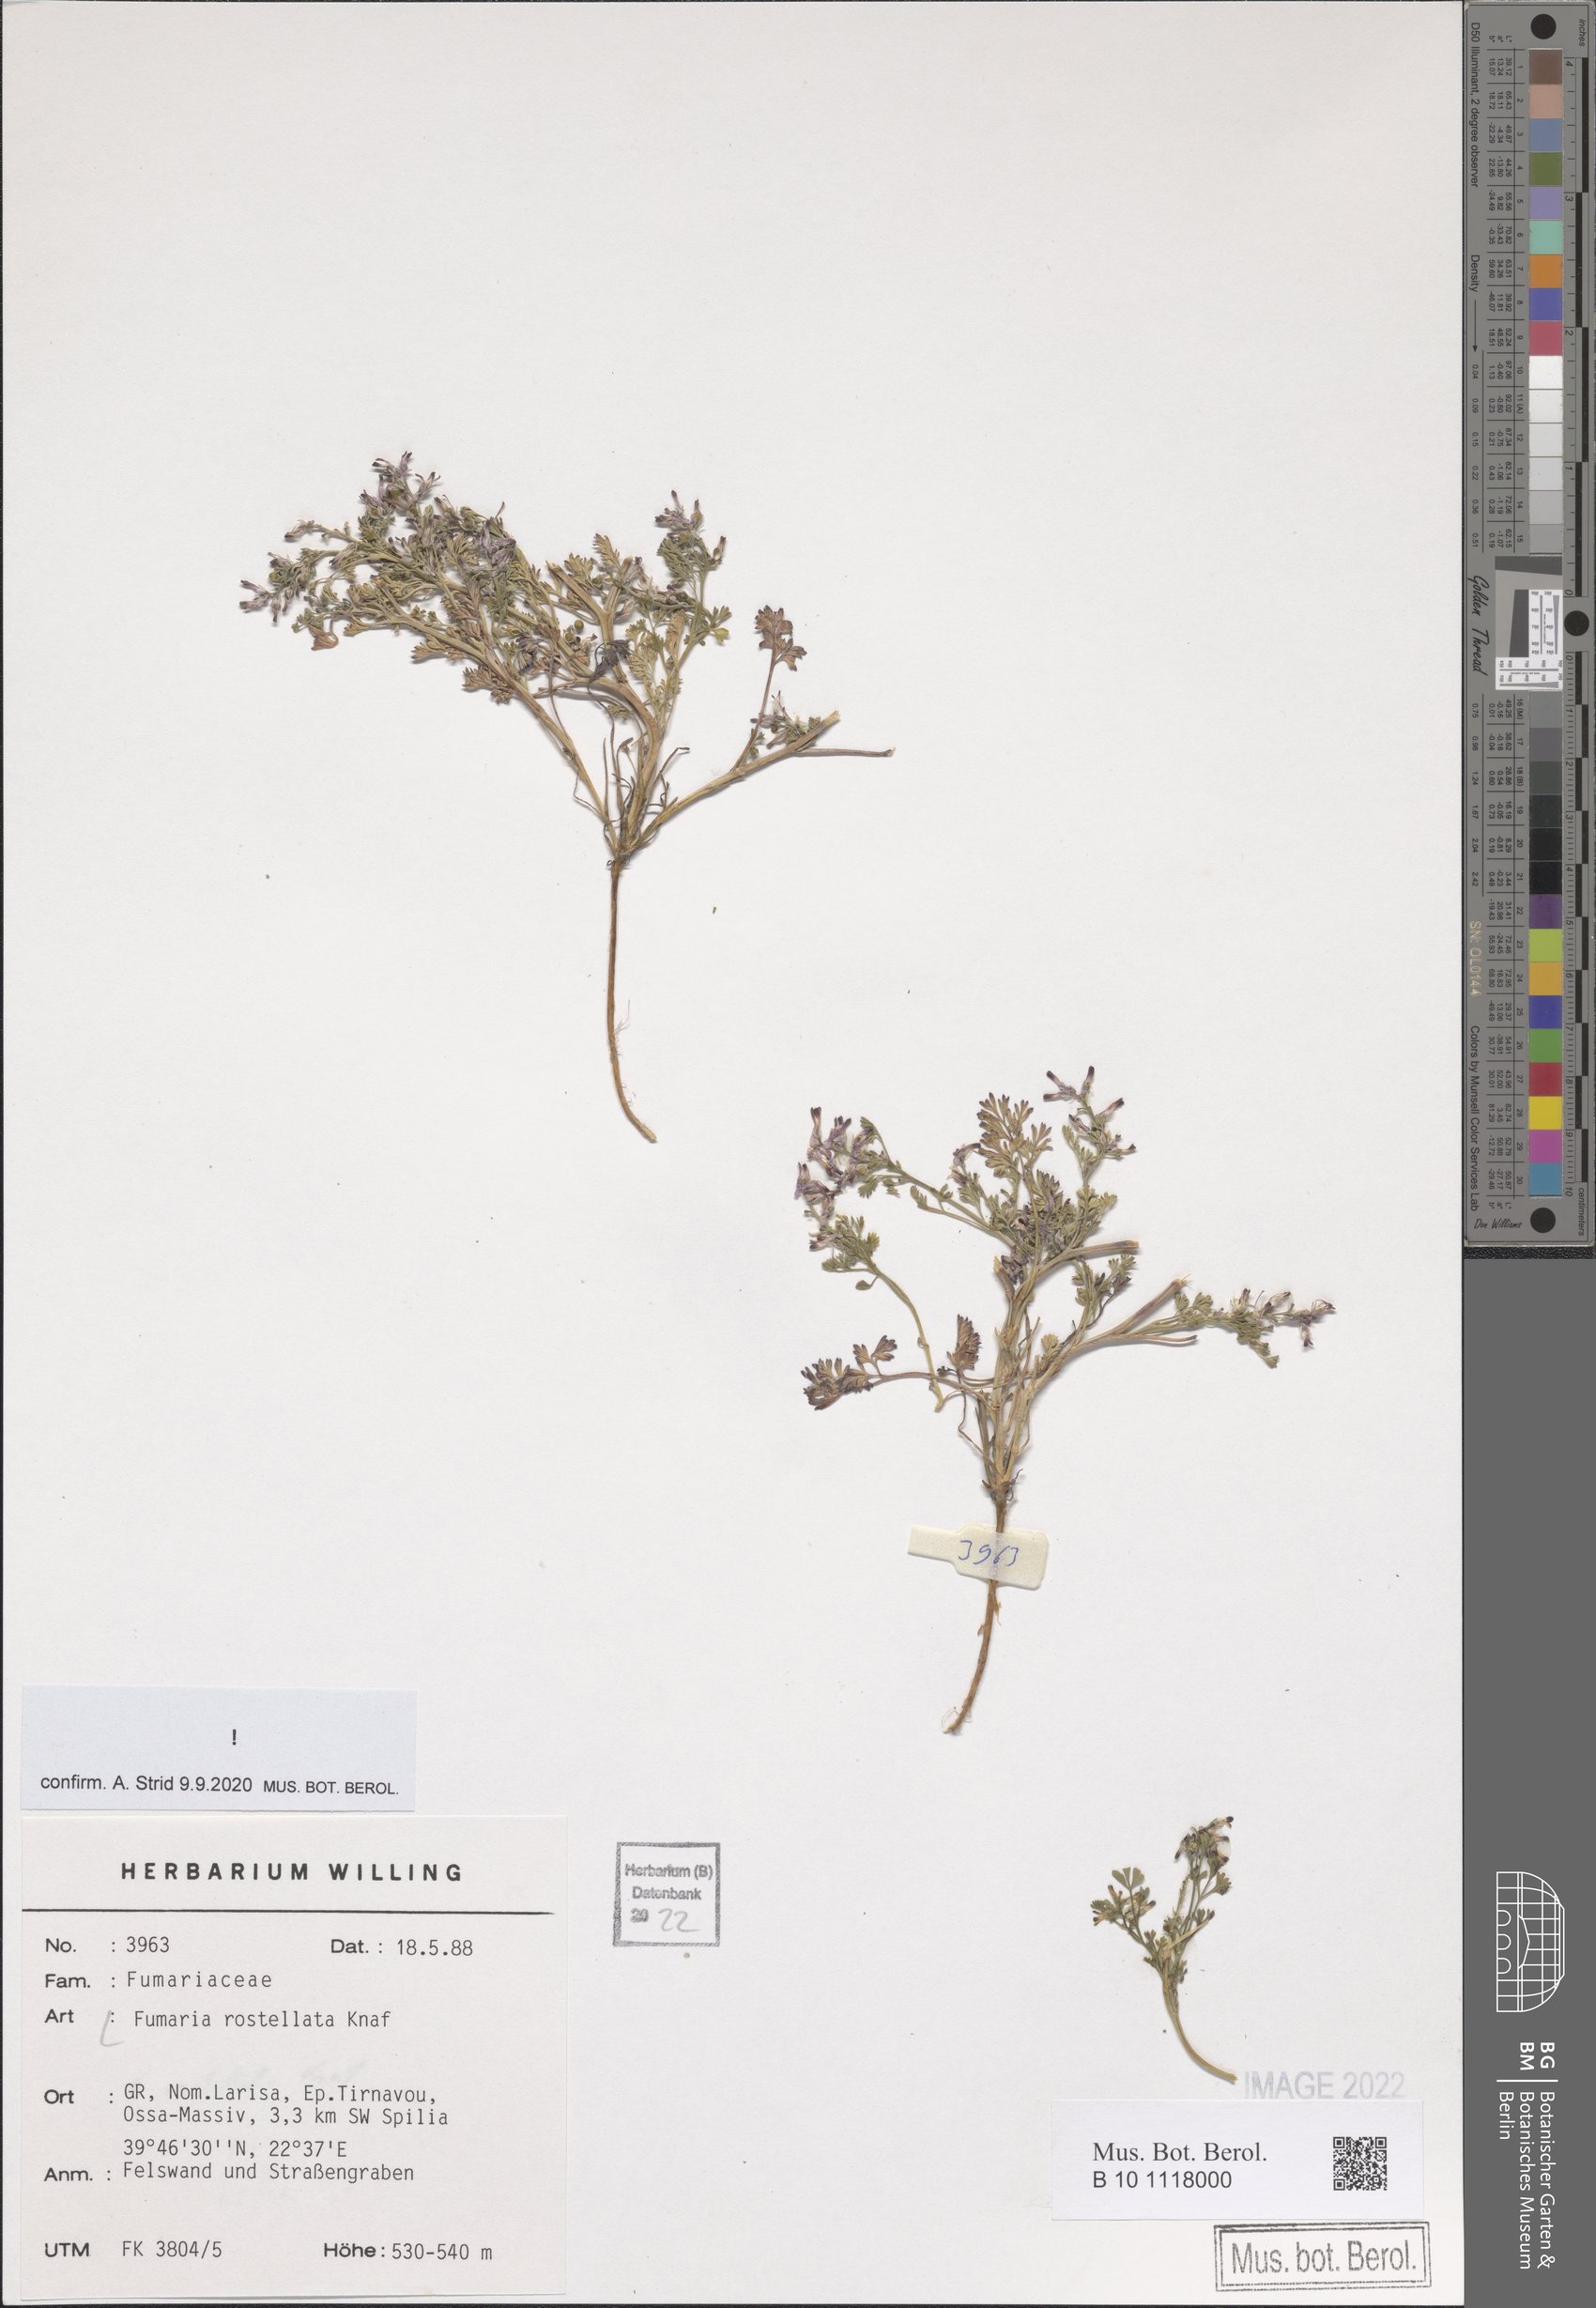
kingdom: Plantae
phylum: Tracheophyta
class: Magnoliopsida
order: Ranunculales
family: Papaveraceae
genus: Fumaria
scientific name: Fumaria rostellata
